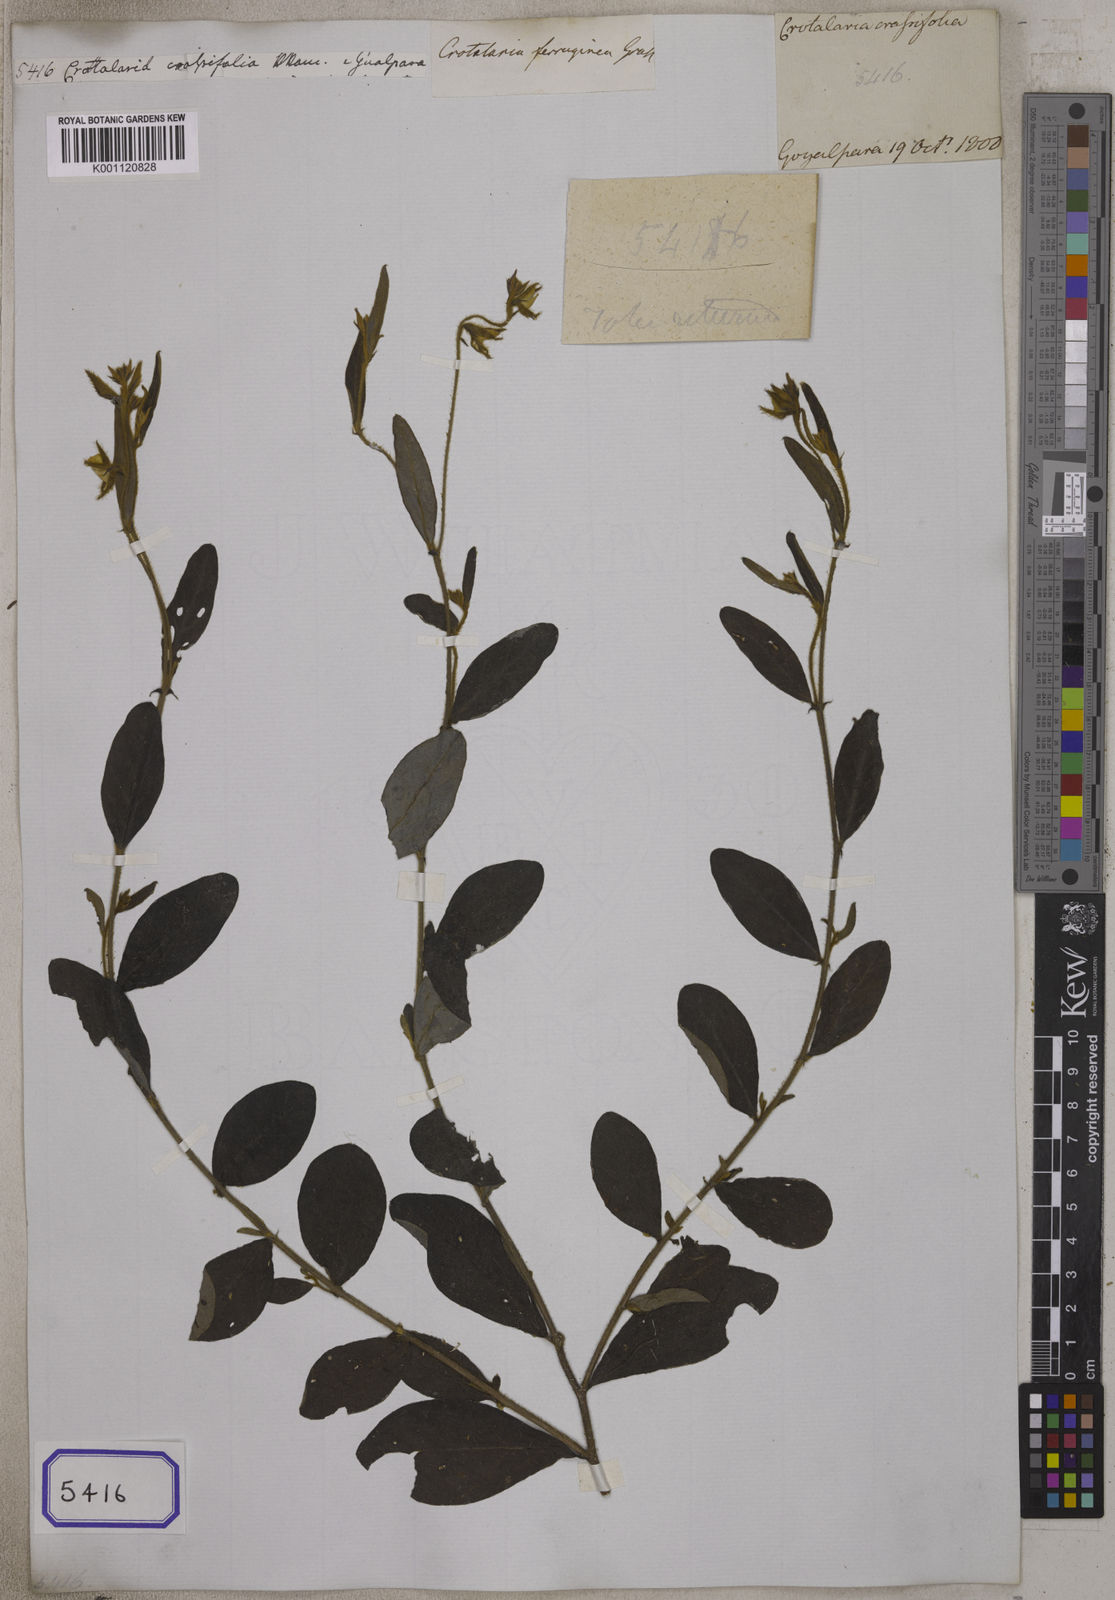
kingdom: Plantae
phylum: Tracheophyta
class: Magnoliopsida
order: Fabales
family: Fabaceae
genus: Crotalaria
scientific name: Crotalaria lejoloba
